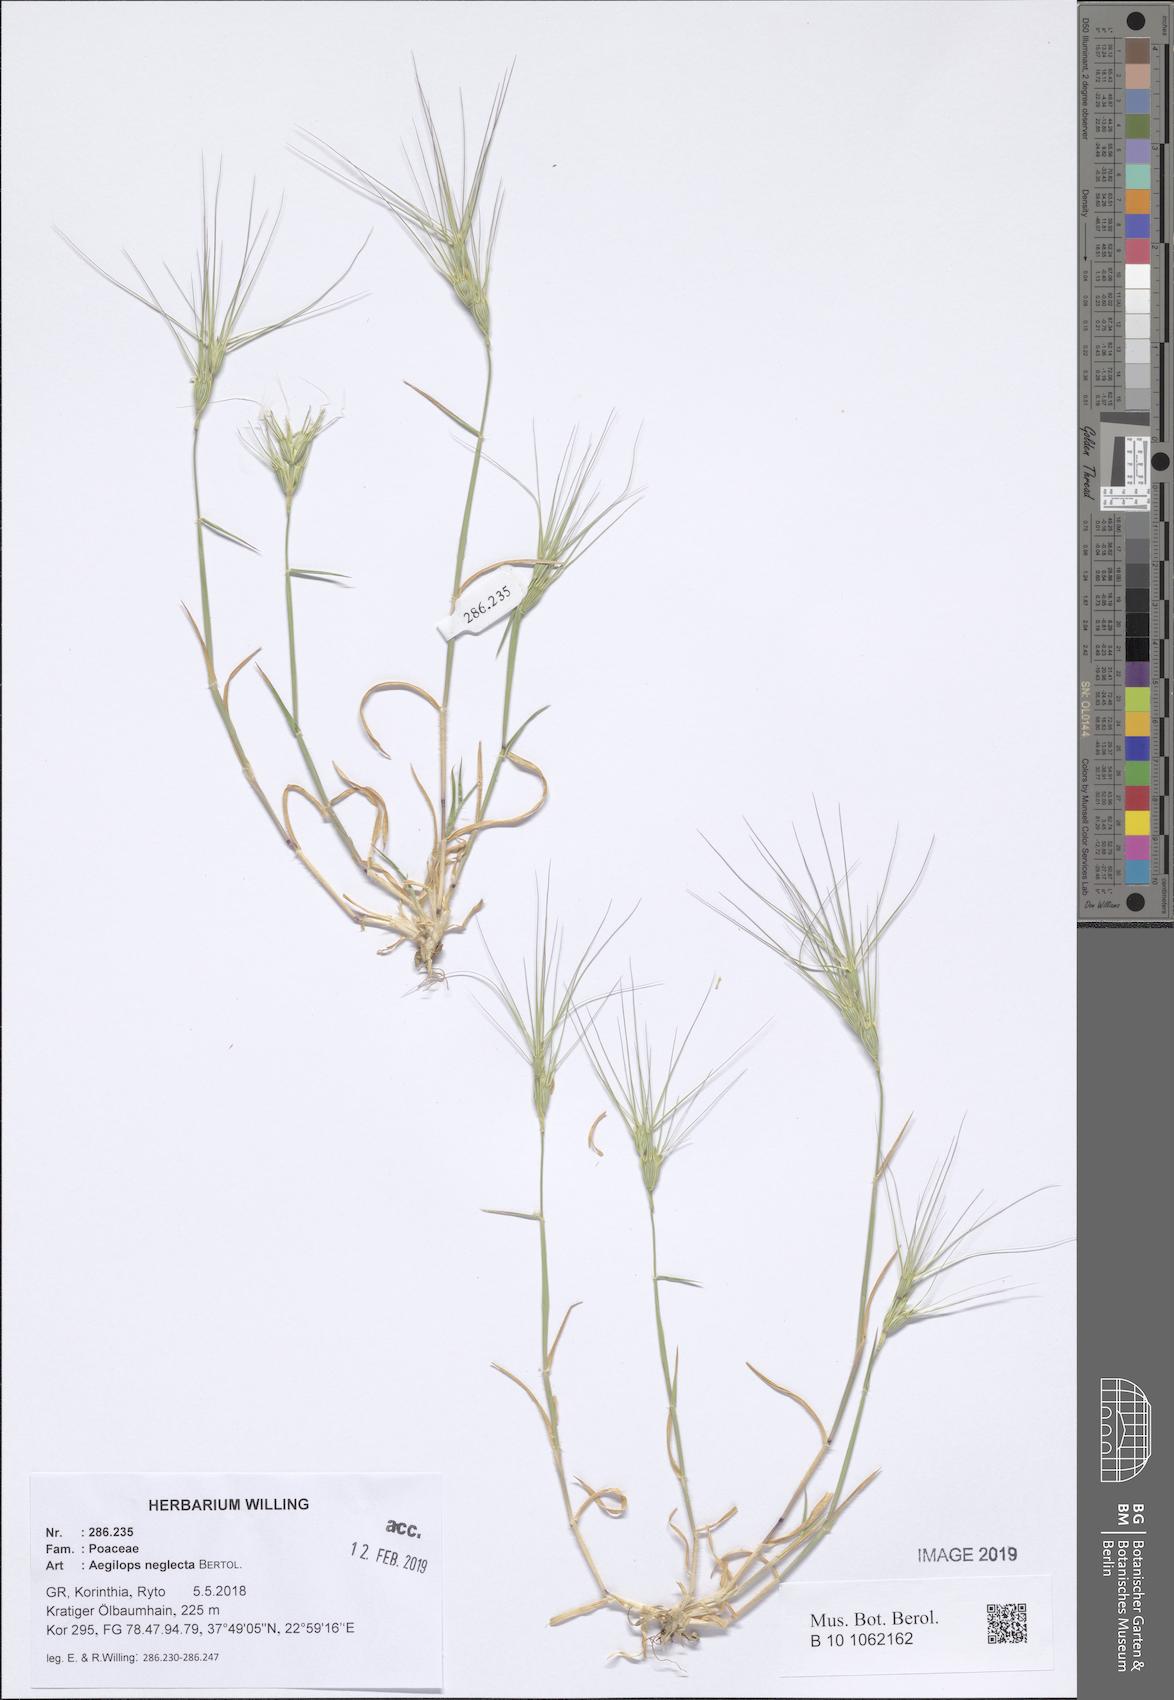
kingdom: Plantae
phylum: Tracheophyta
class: Liliopsida
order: Poales
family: Poaceae
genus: Aegilops
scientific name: Aegilops neglecta
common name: Three-awn goat grass
